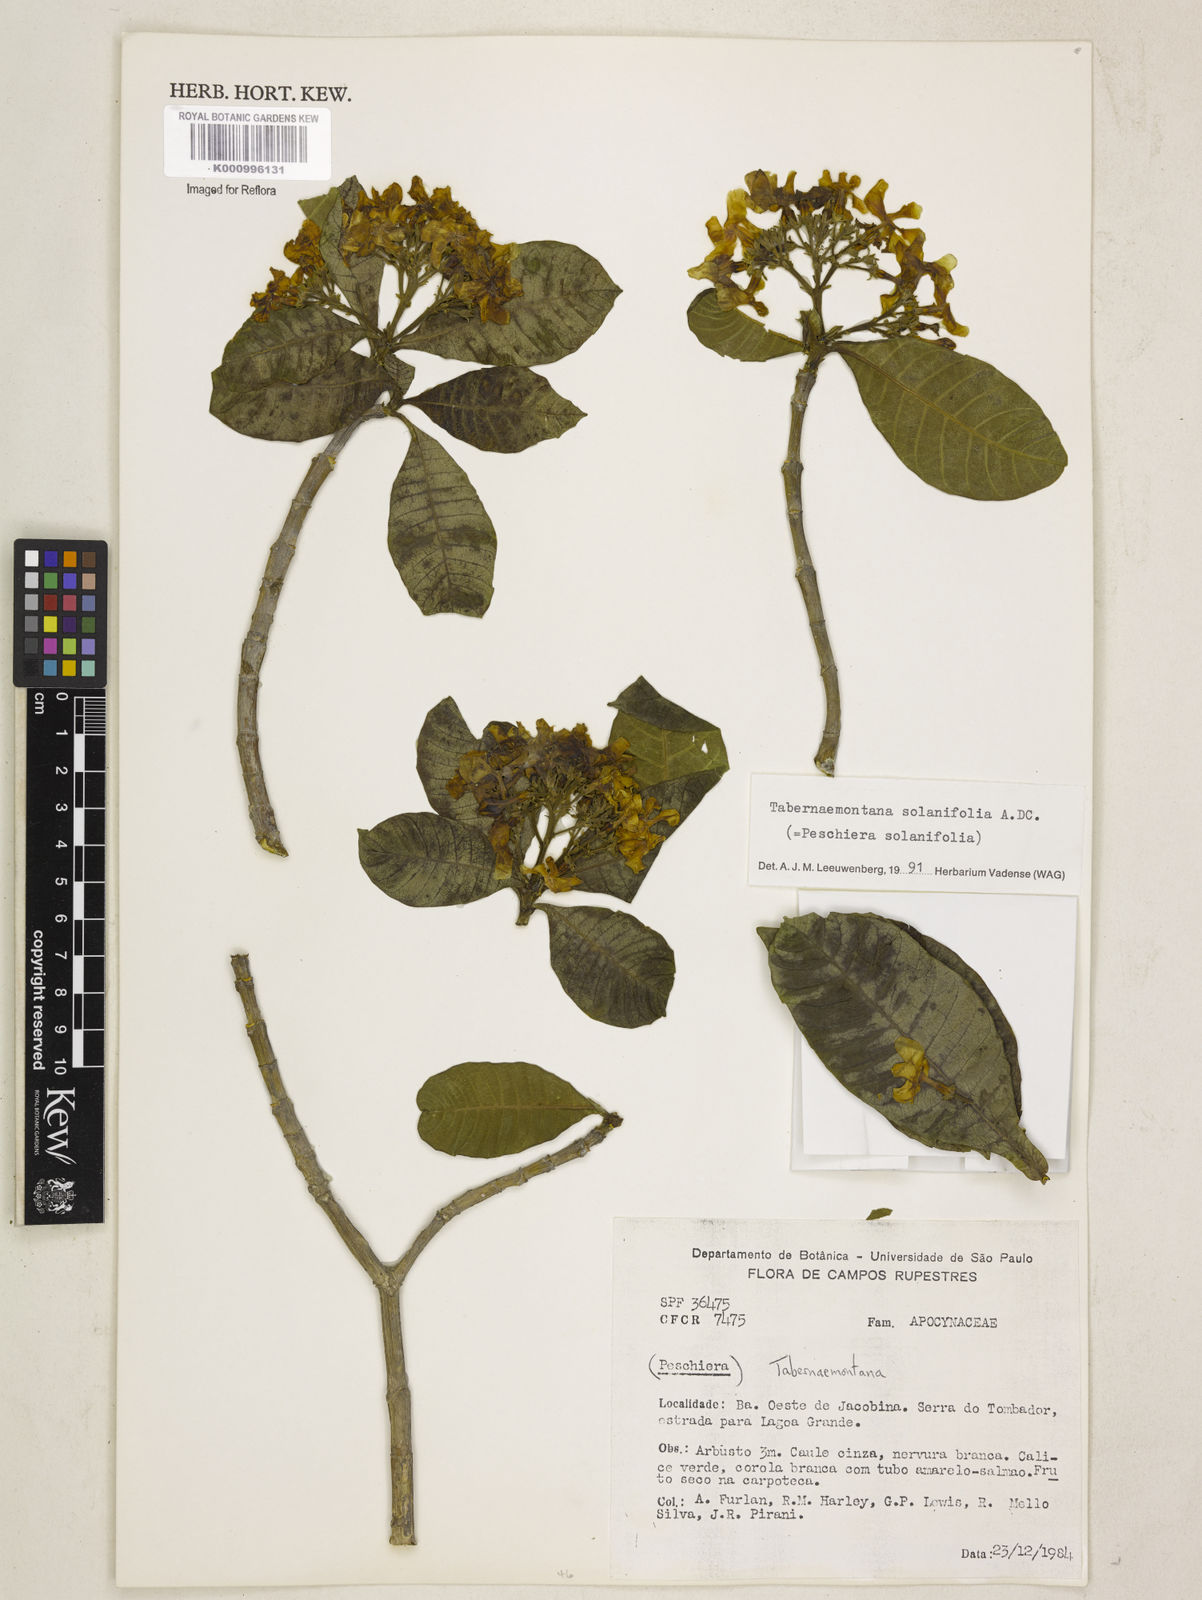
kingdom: Plantae
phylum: Tracheophyta
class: Magnoliopsida
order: Gentianales
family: Apocynaceae
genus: Tabernaemontana
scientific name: Tabernaemontana solanifolia
